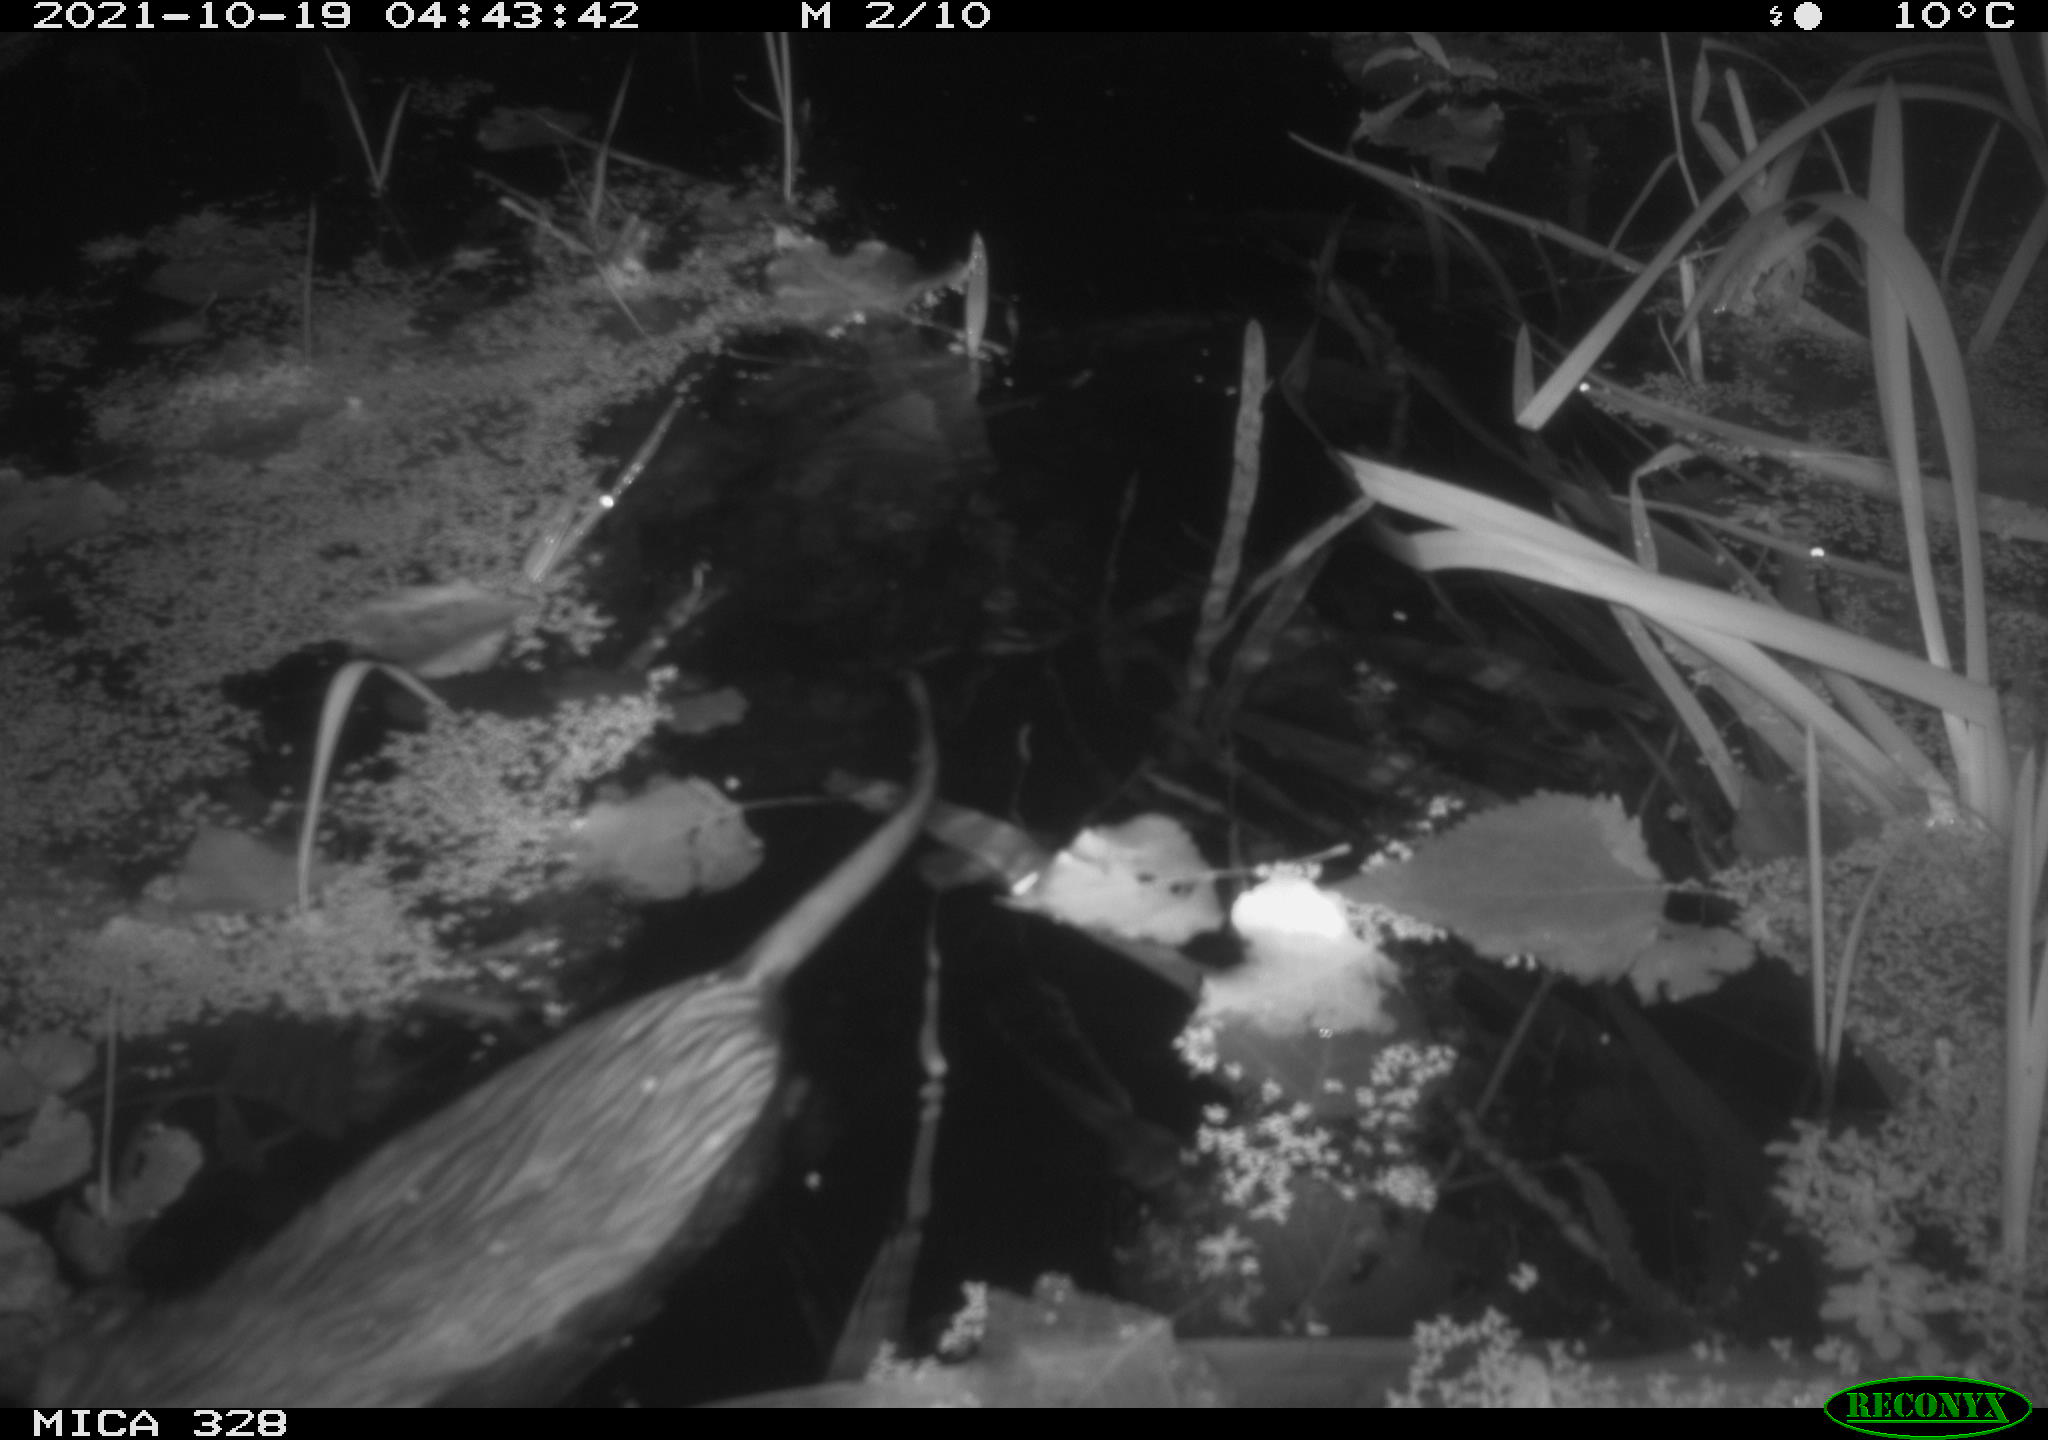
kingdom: Animalia
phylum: Chordata
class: Mammalia
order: Rodentia
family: Cricetidae
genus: Ondatra
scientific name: Ondatra zibethicus
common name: Muskrat
